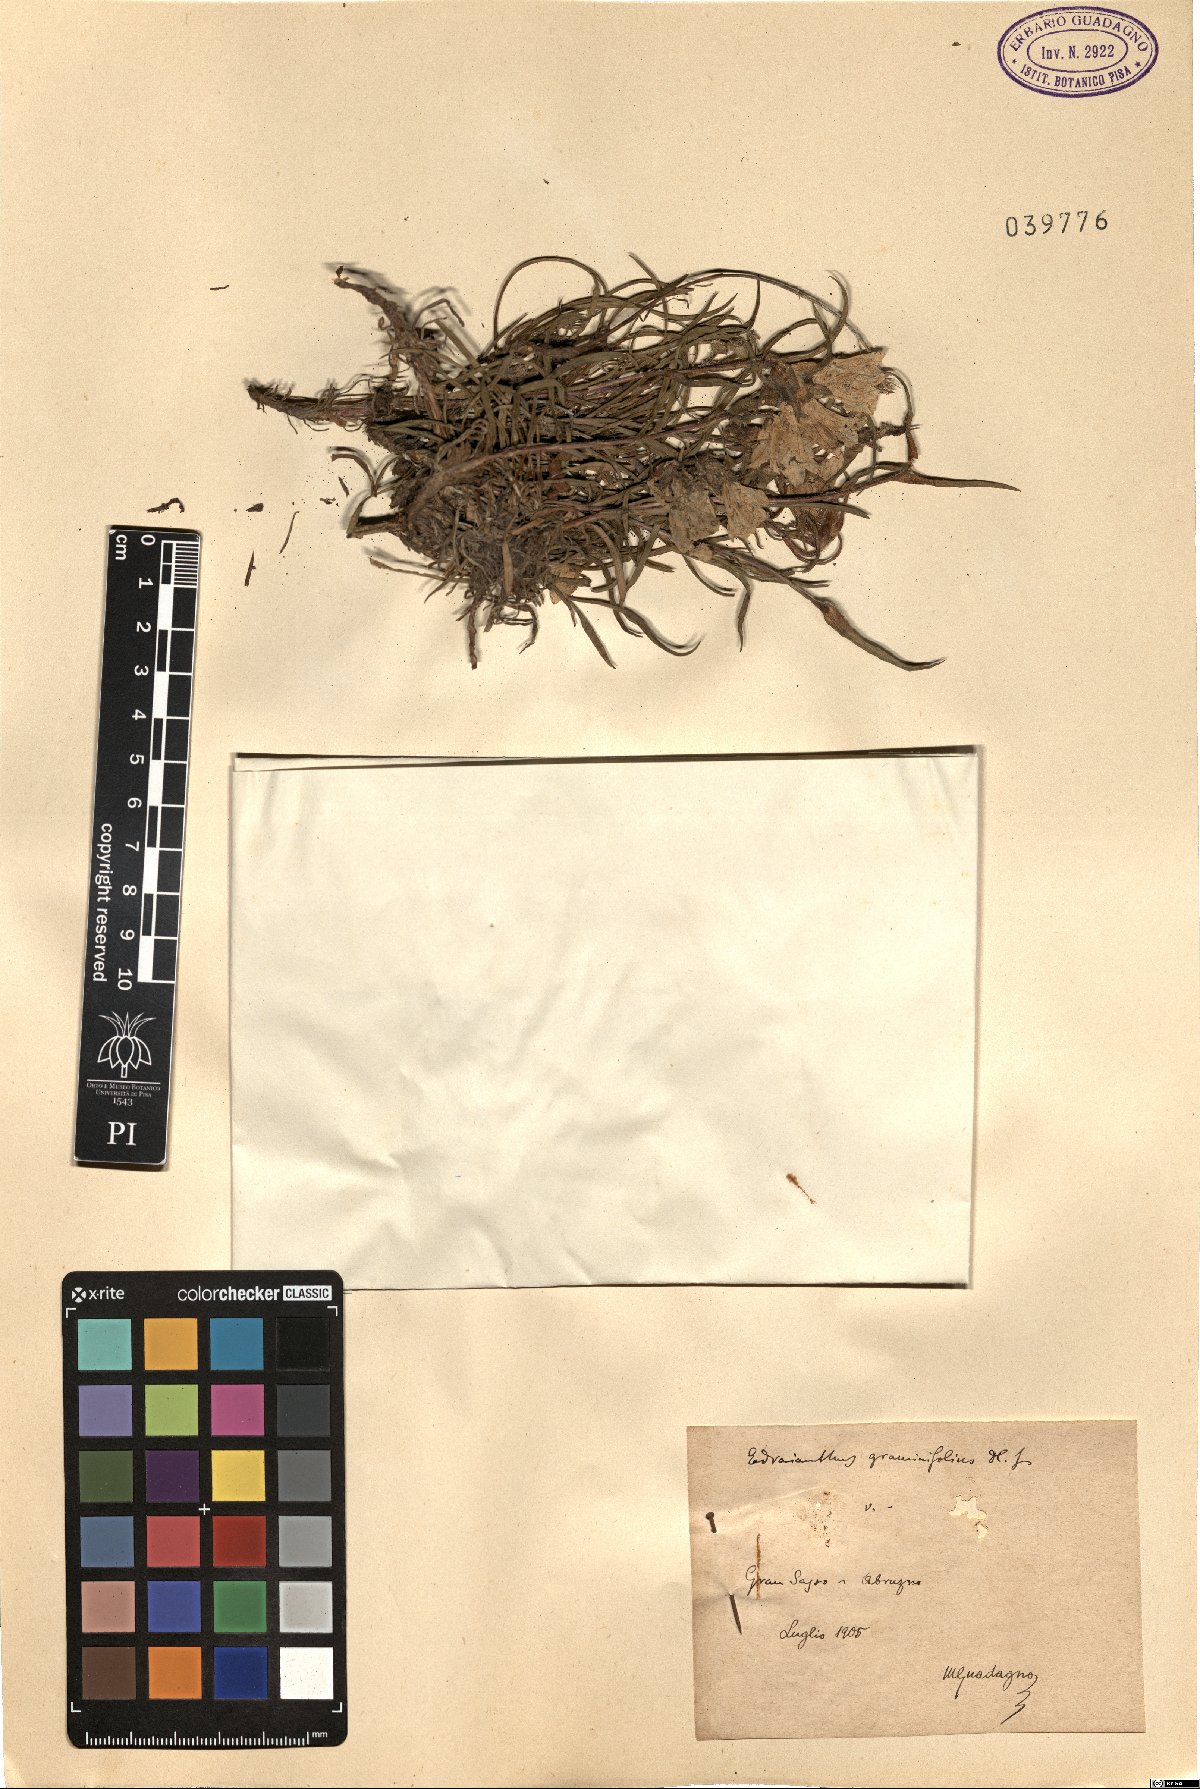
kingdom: Plantae
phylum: Tracheophyta
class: Magnoliopsida
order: Asterales
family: Campanulaceae
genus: Edraianthus
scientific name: Edraianthus graminifolius
